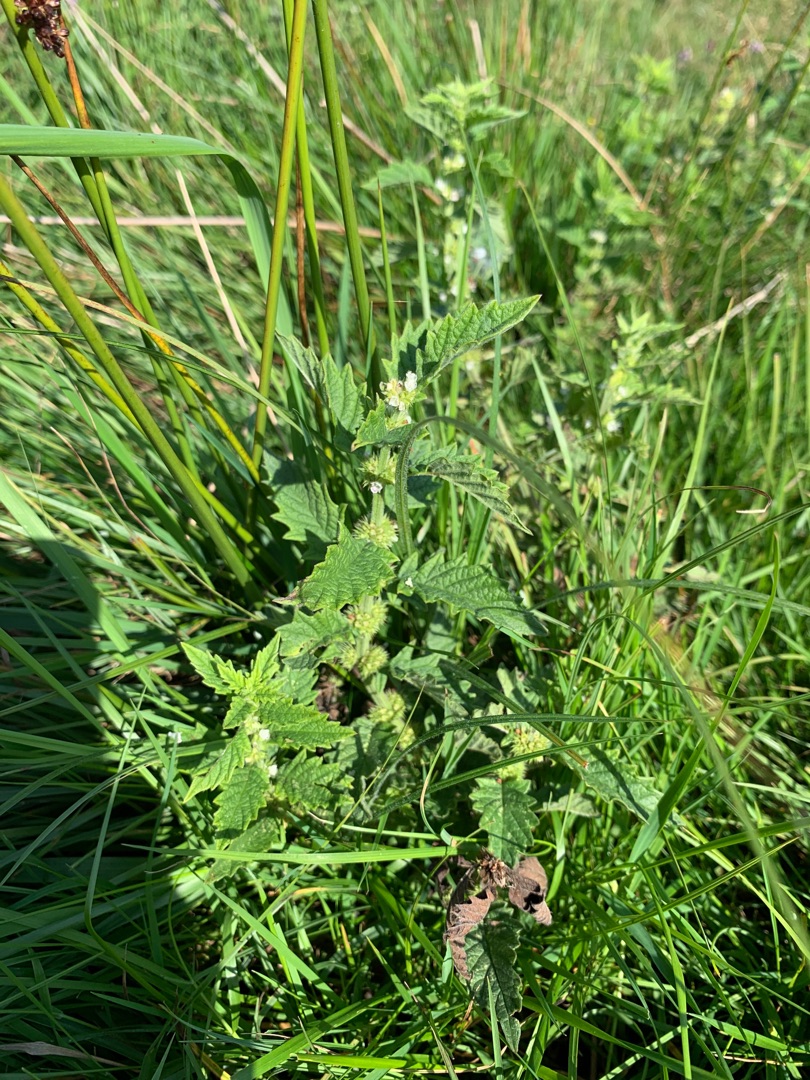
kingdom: Plantae
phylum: Tracheophyta
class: Magnoliopsida
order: Lamiales
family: Lamiaceae
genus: Lycopus
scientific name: Lycopus europaeus
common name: Sværtevæld
